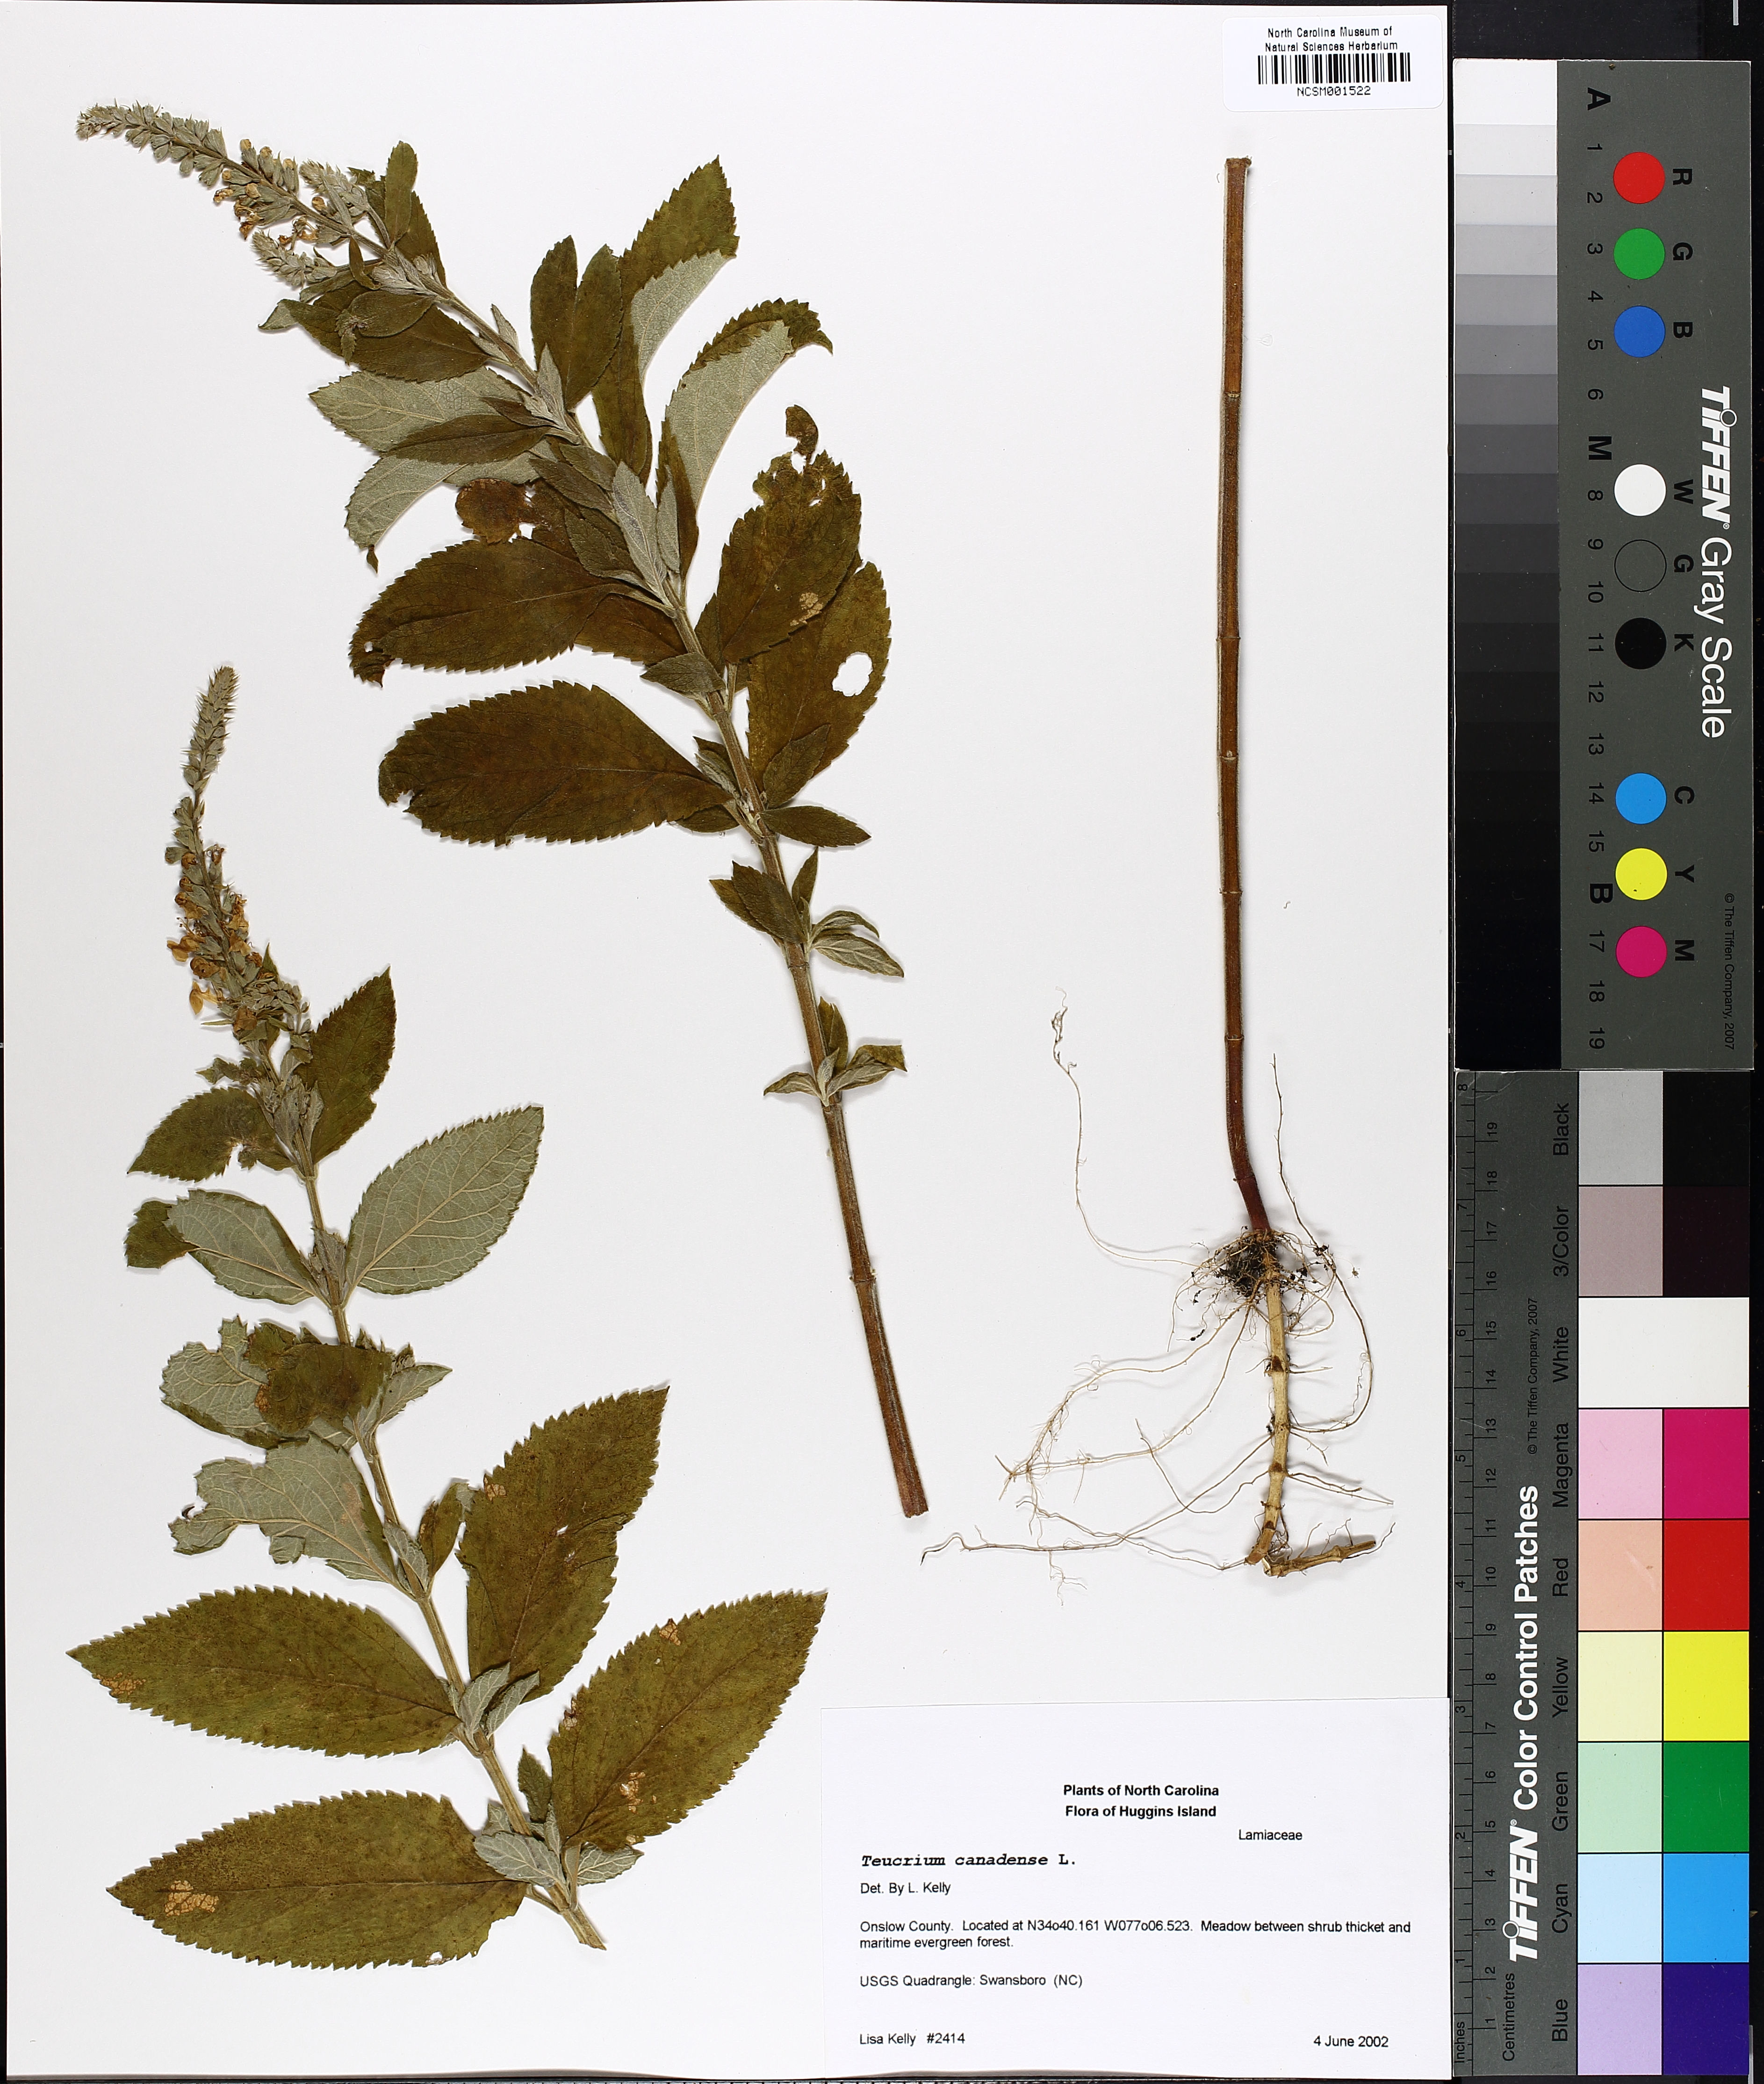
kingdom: Plantae
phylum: Tracheophyta
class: Magnoliopsida
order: Lamiales
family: Lamiaceae
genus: Teucrium
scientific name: Teucrium canadense
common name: American germander
